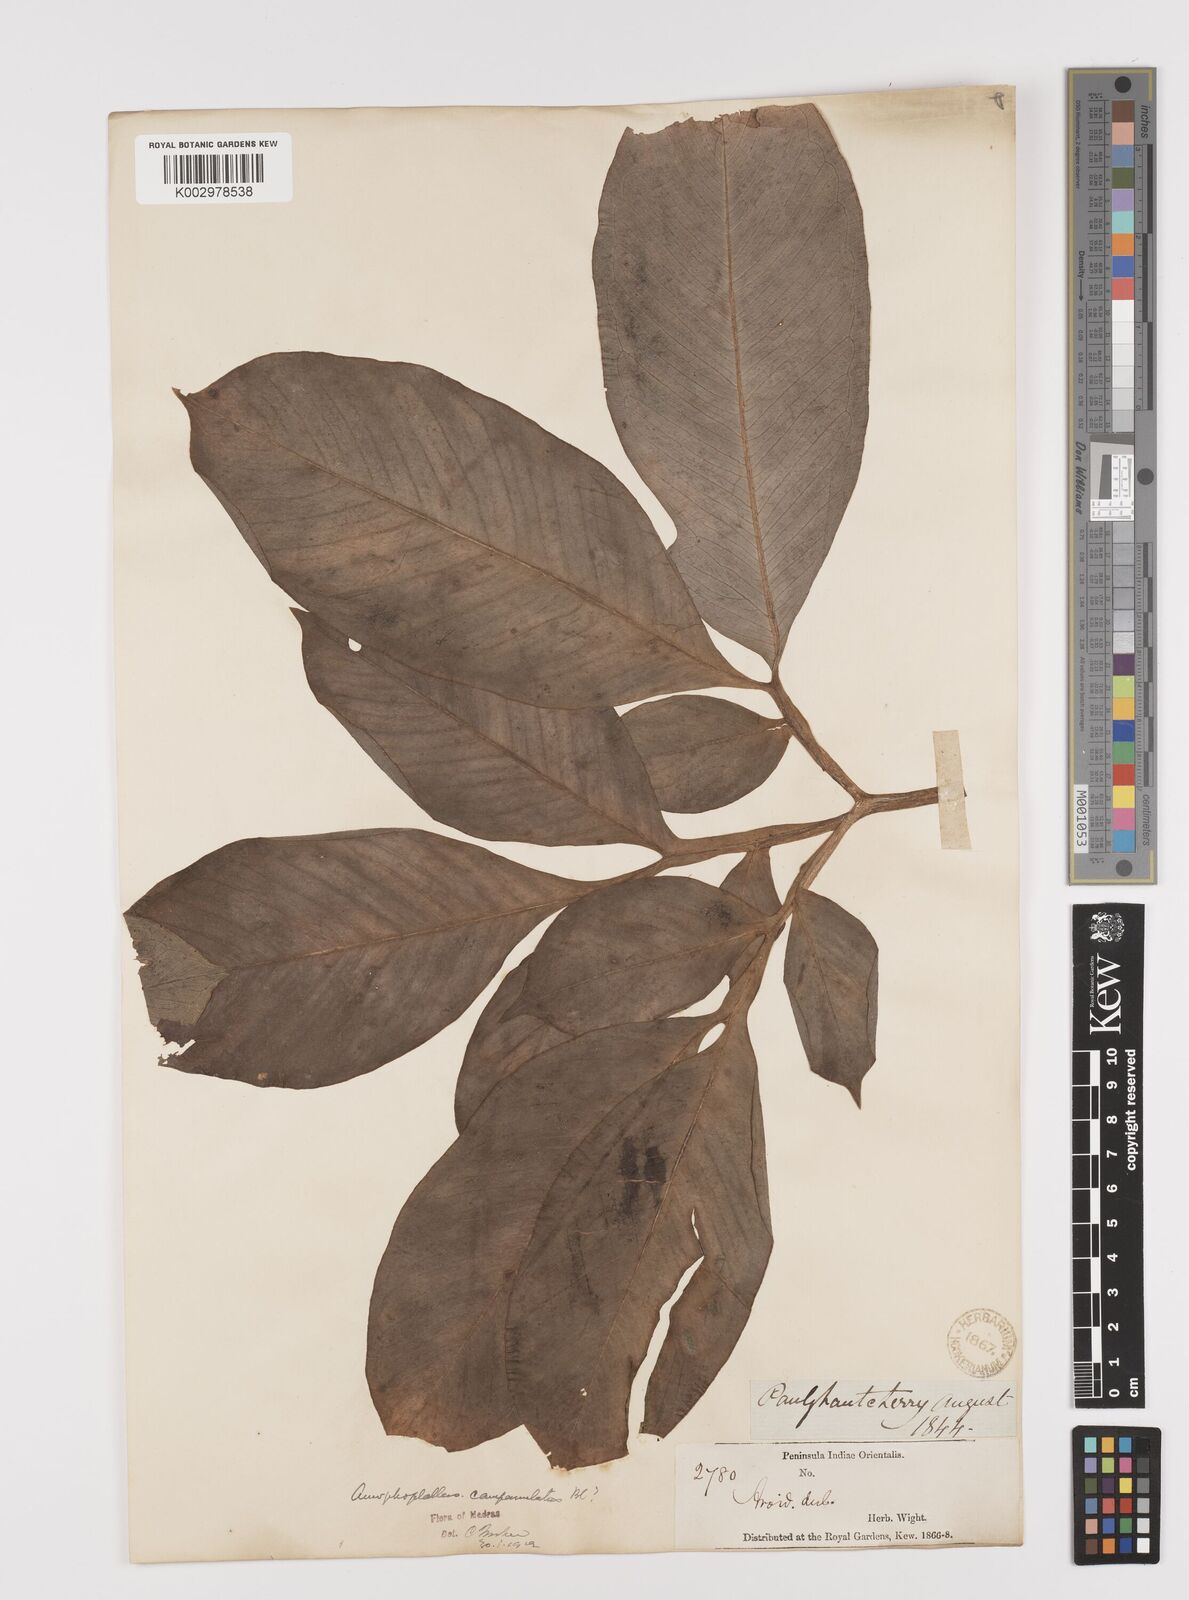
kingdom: Plantae
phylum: Tracheophyta
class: Liliopsida
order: Alismatales
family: Araceae
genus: Amorphophallus
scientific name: Amorphophallus paeoniifolius
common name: Telinga-potato
